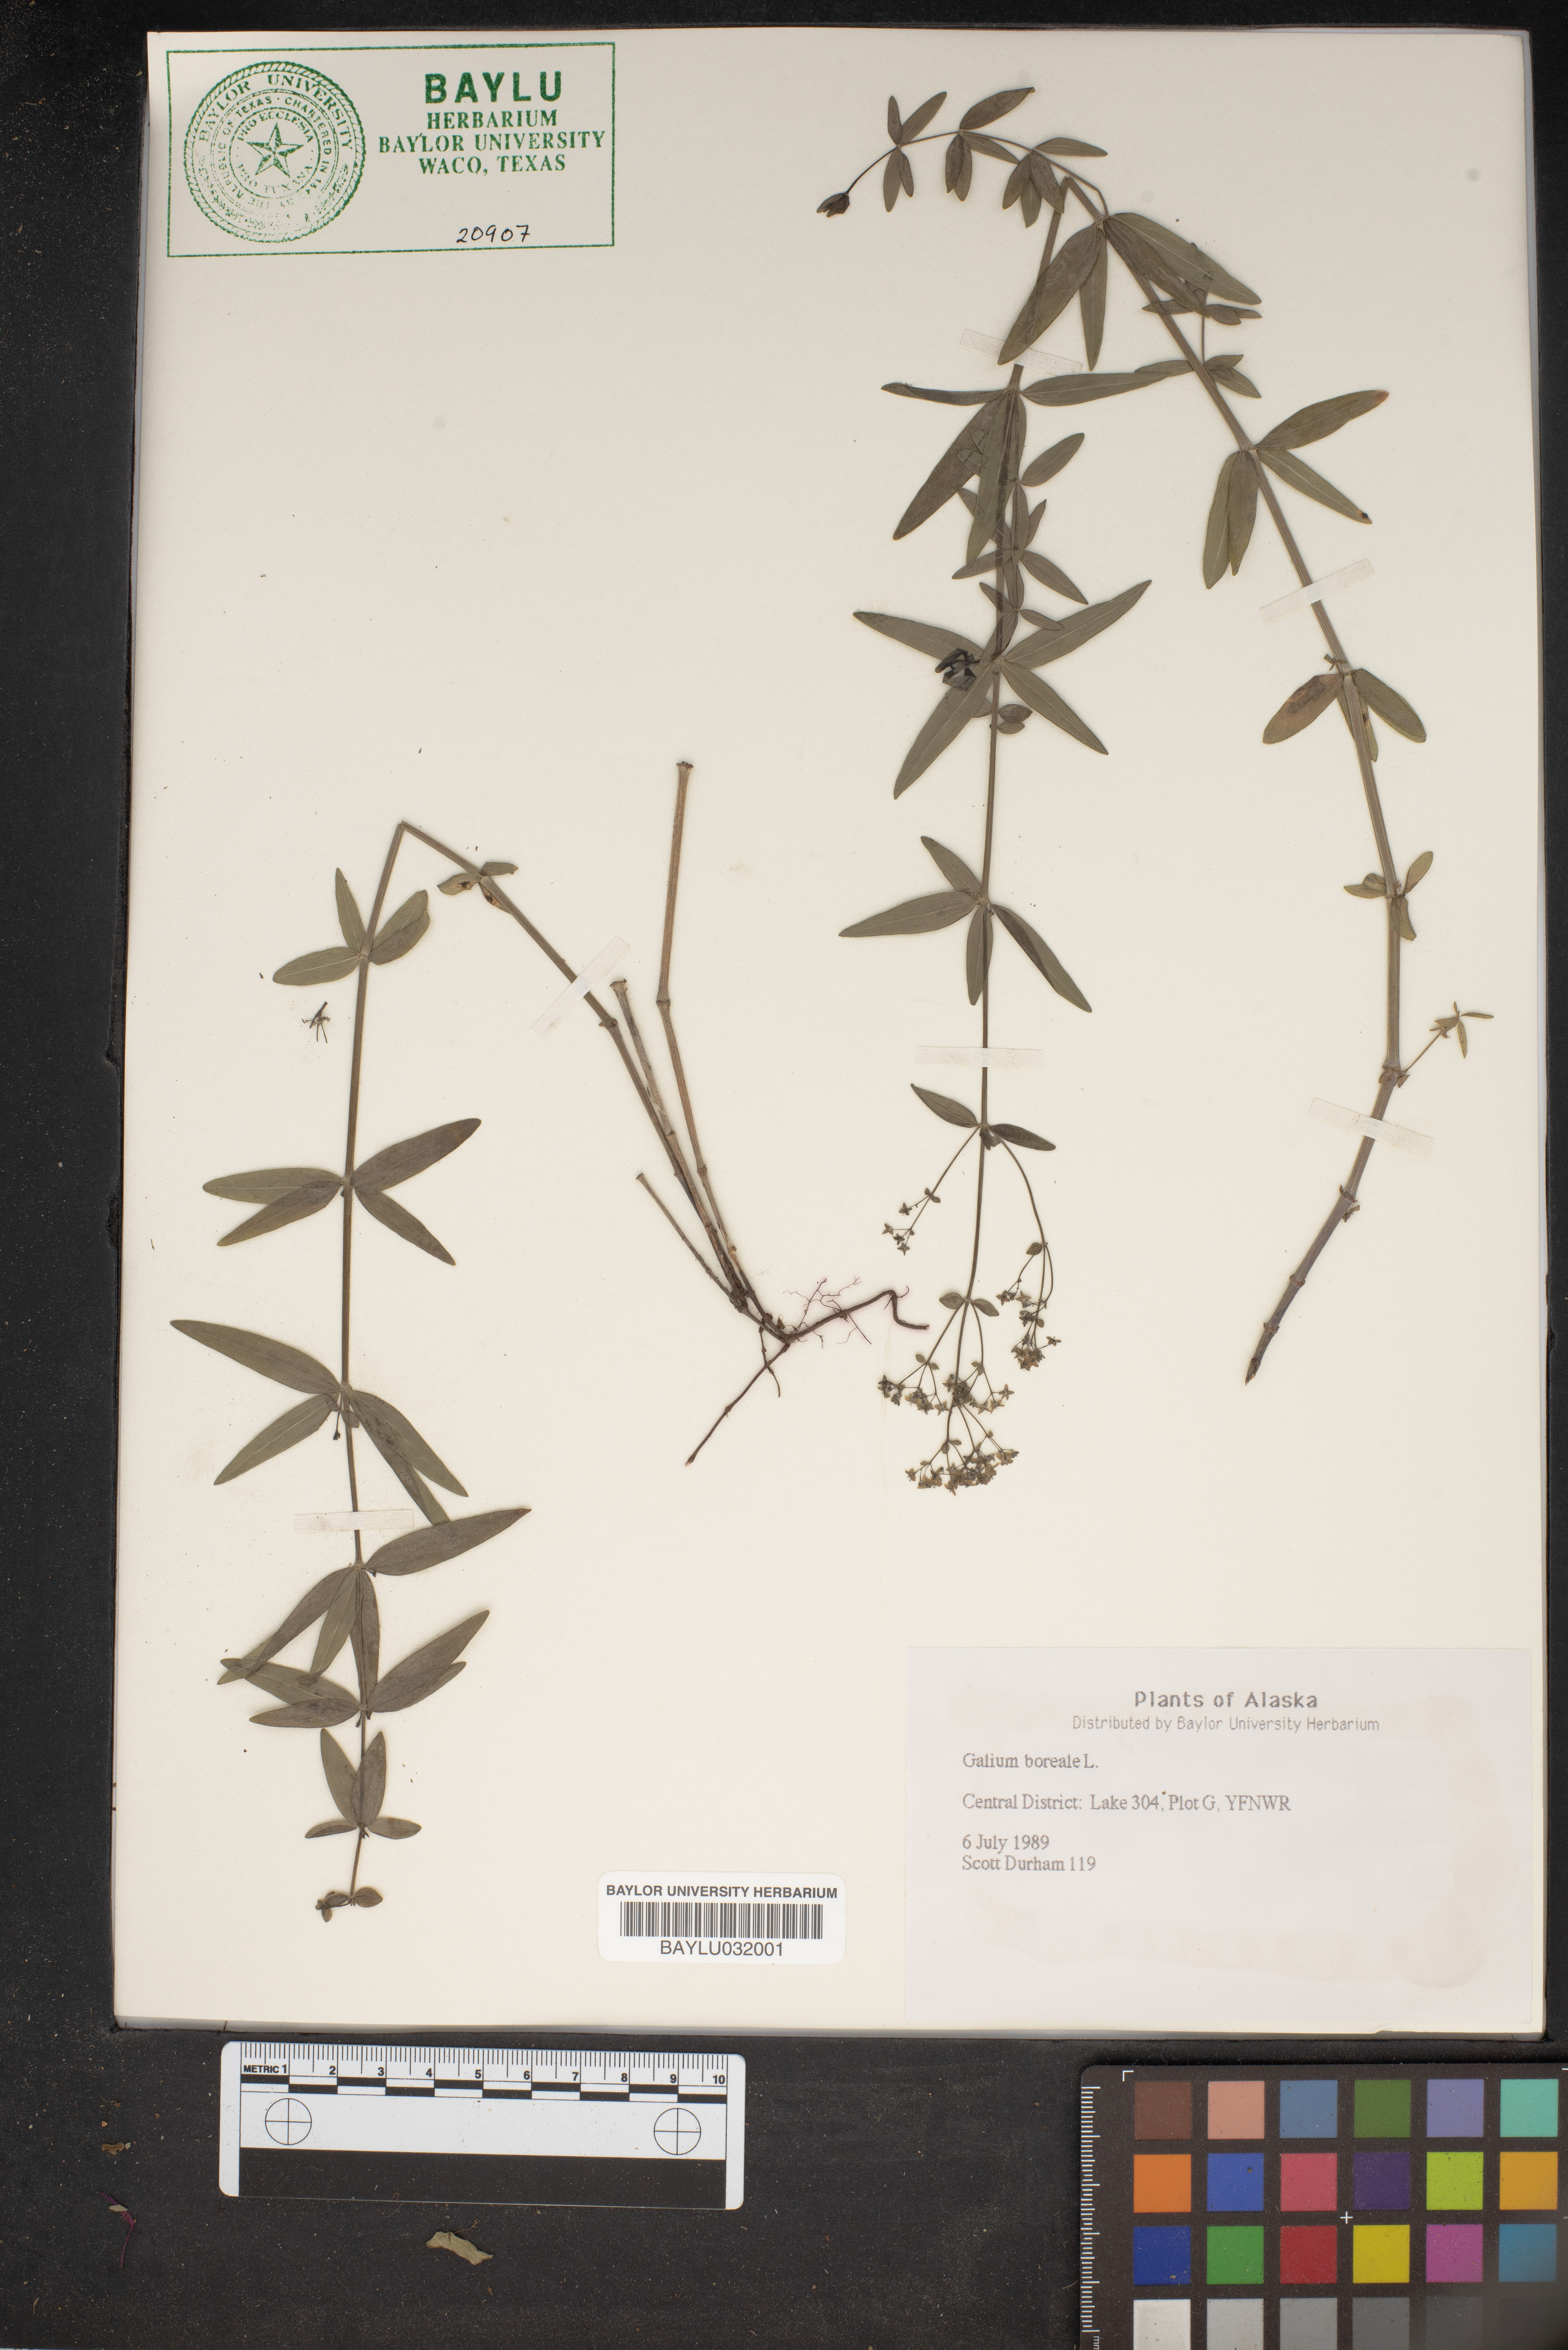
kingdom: Plantae
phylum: Tracheophyta
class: Magnoliopsida
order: Gentianales
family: Rubiaceae
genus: Galium
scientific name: Galium boreale
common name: Northern bedstraw
